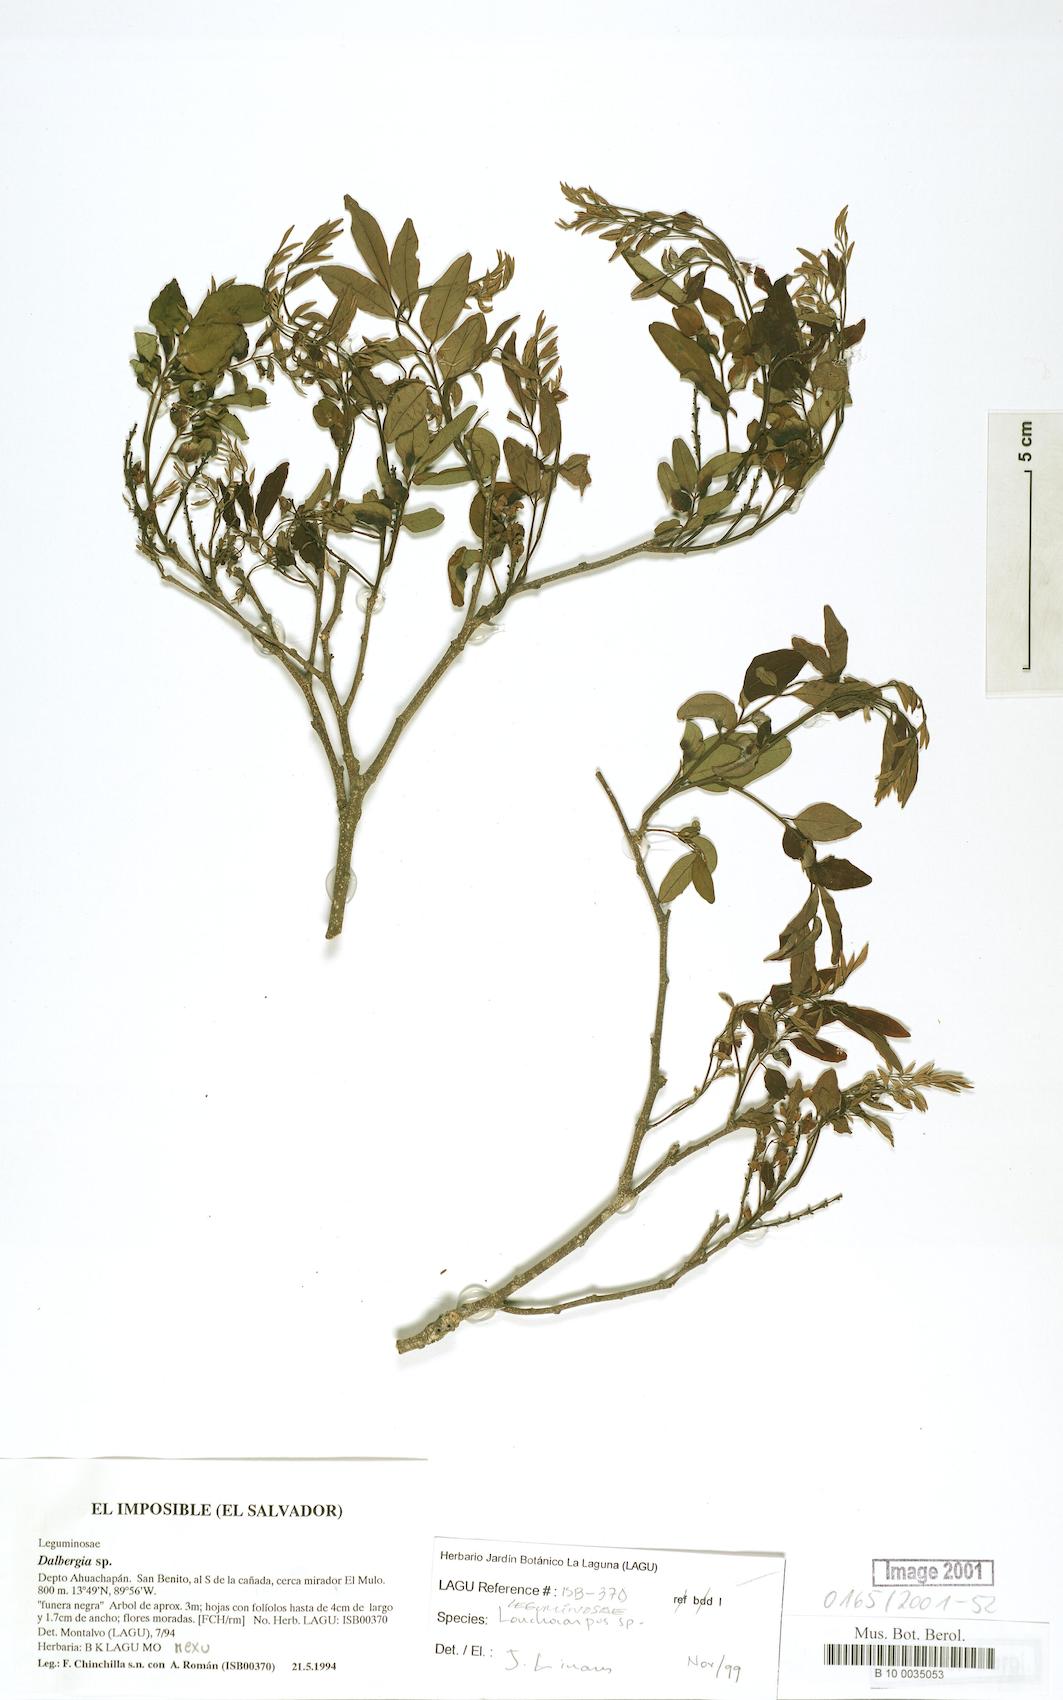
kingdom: Plantae
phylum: Tracheophyta
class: Magnoliopsida
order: Fabales
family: Fabaceae
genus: Lonchocarpus
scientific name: Lonchocarpus stenophyllus
